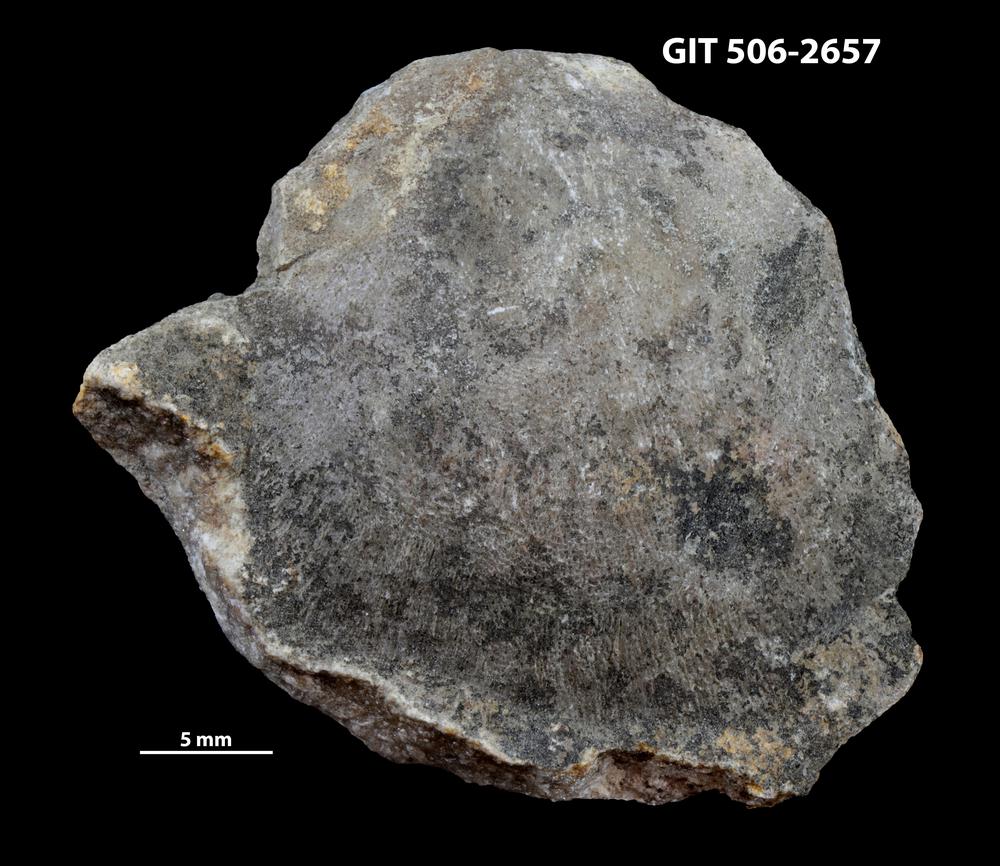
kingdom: Animalia
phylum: Brachiopoda
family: Stropheodontidae
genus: Strophodonta
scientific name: Strophodonta Brachyprion semiglobosa
